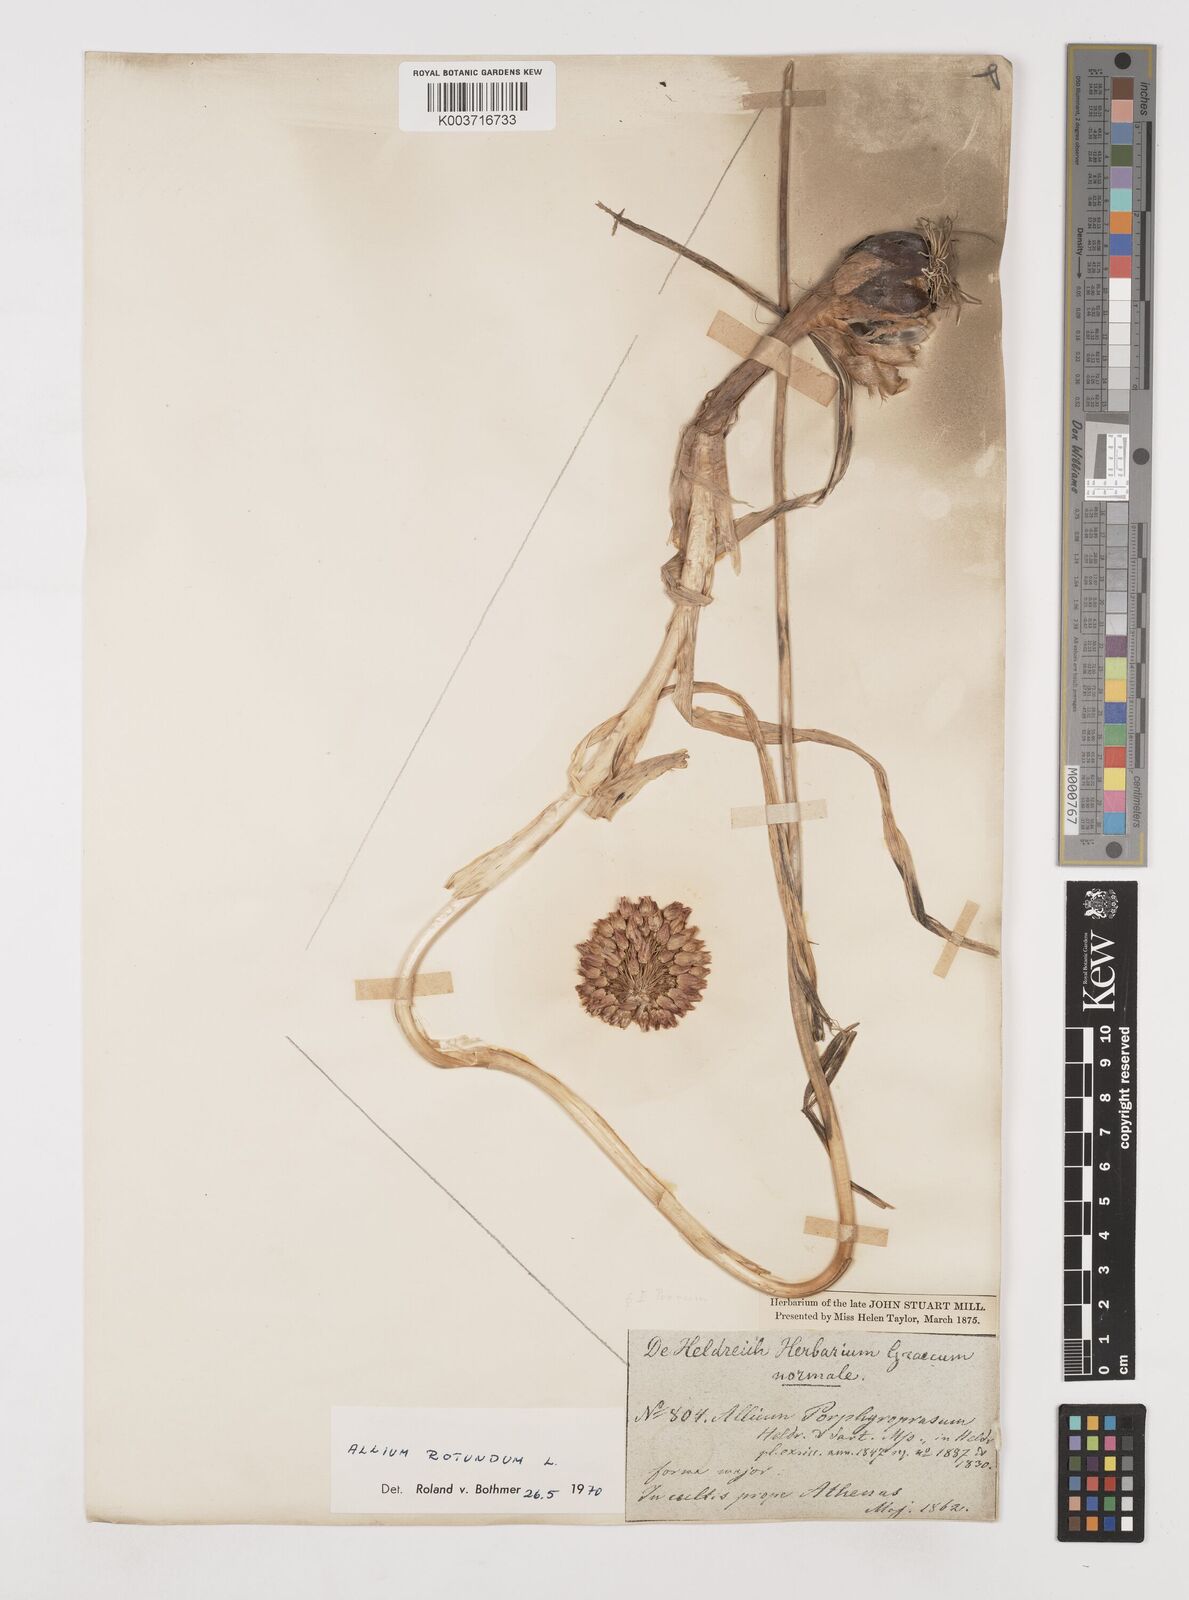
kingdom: Plantae
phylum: Tracheophyta
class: Liliopsida
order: Asparagales
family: Amaryllidaceae
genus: Allium
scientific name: Allium rotundum
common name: Sand leek
